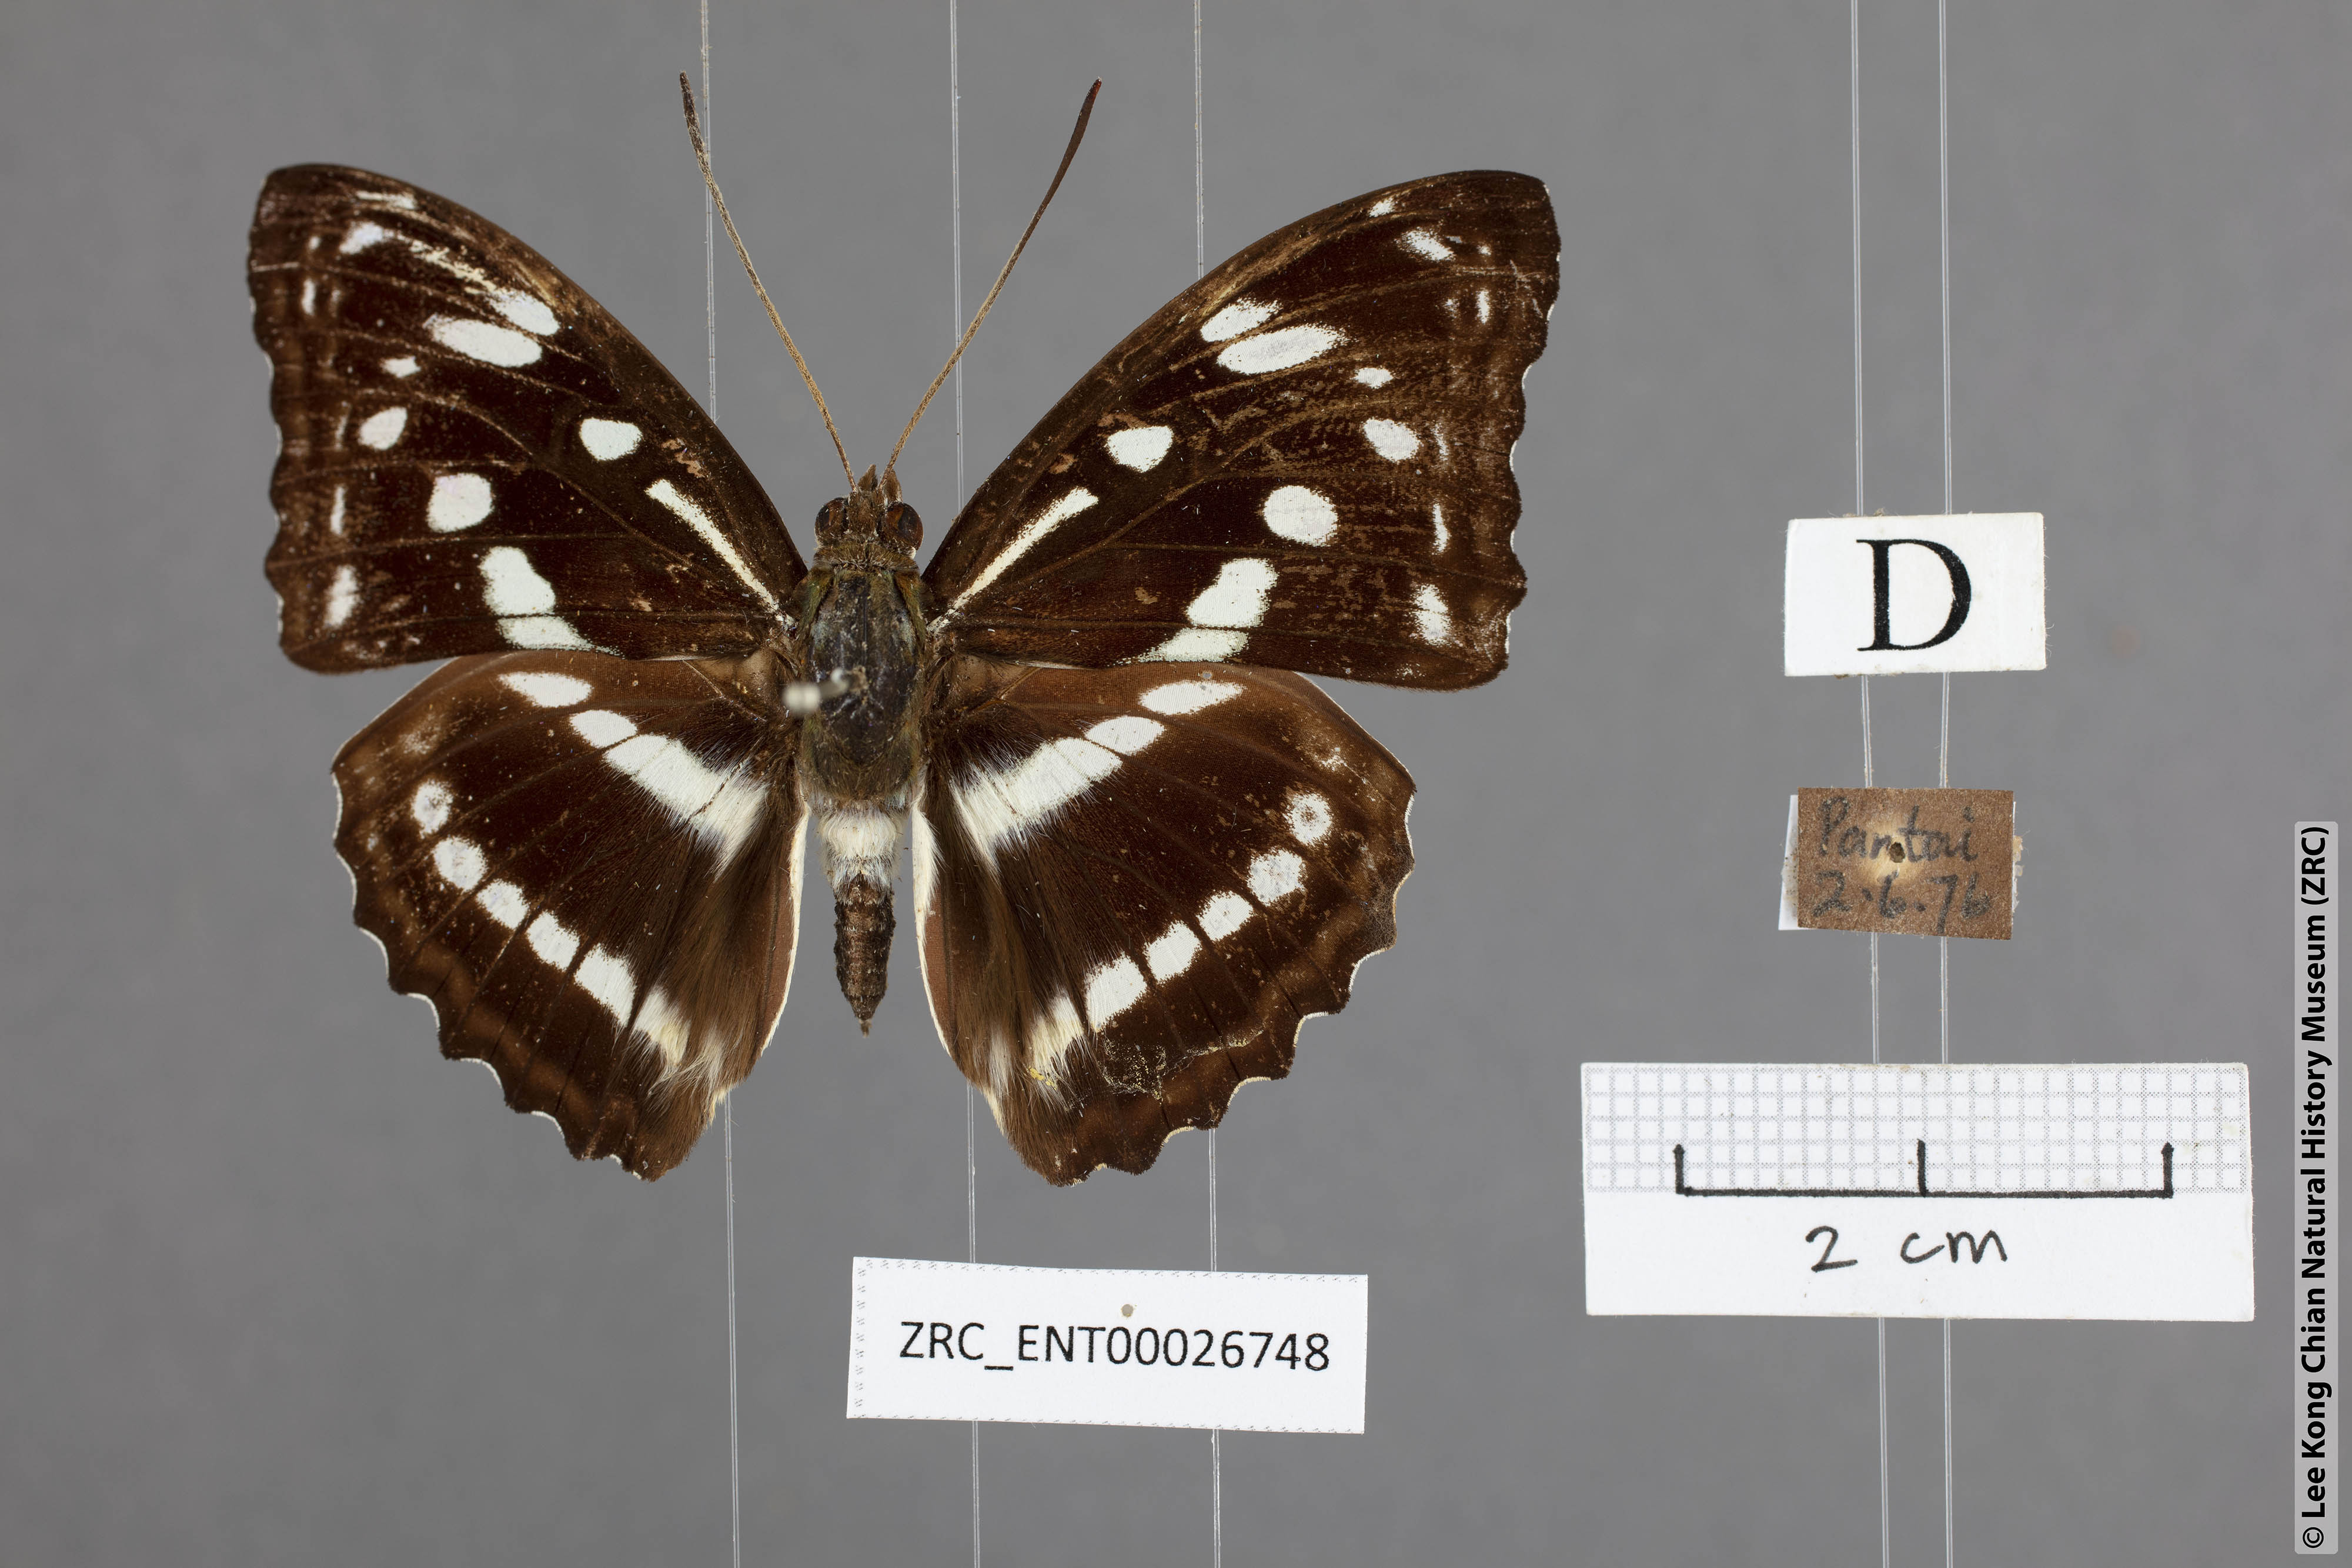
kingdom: Animalia
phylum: Arthropoda
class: Insecta
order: Lepidoptera
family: Nymphalidae
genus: Parathyma
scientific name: Parathyma asura
